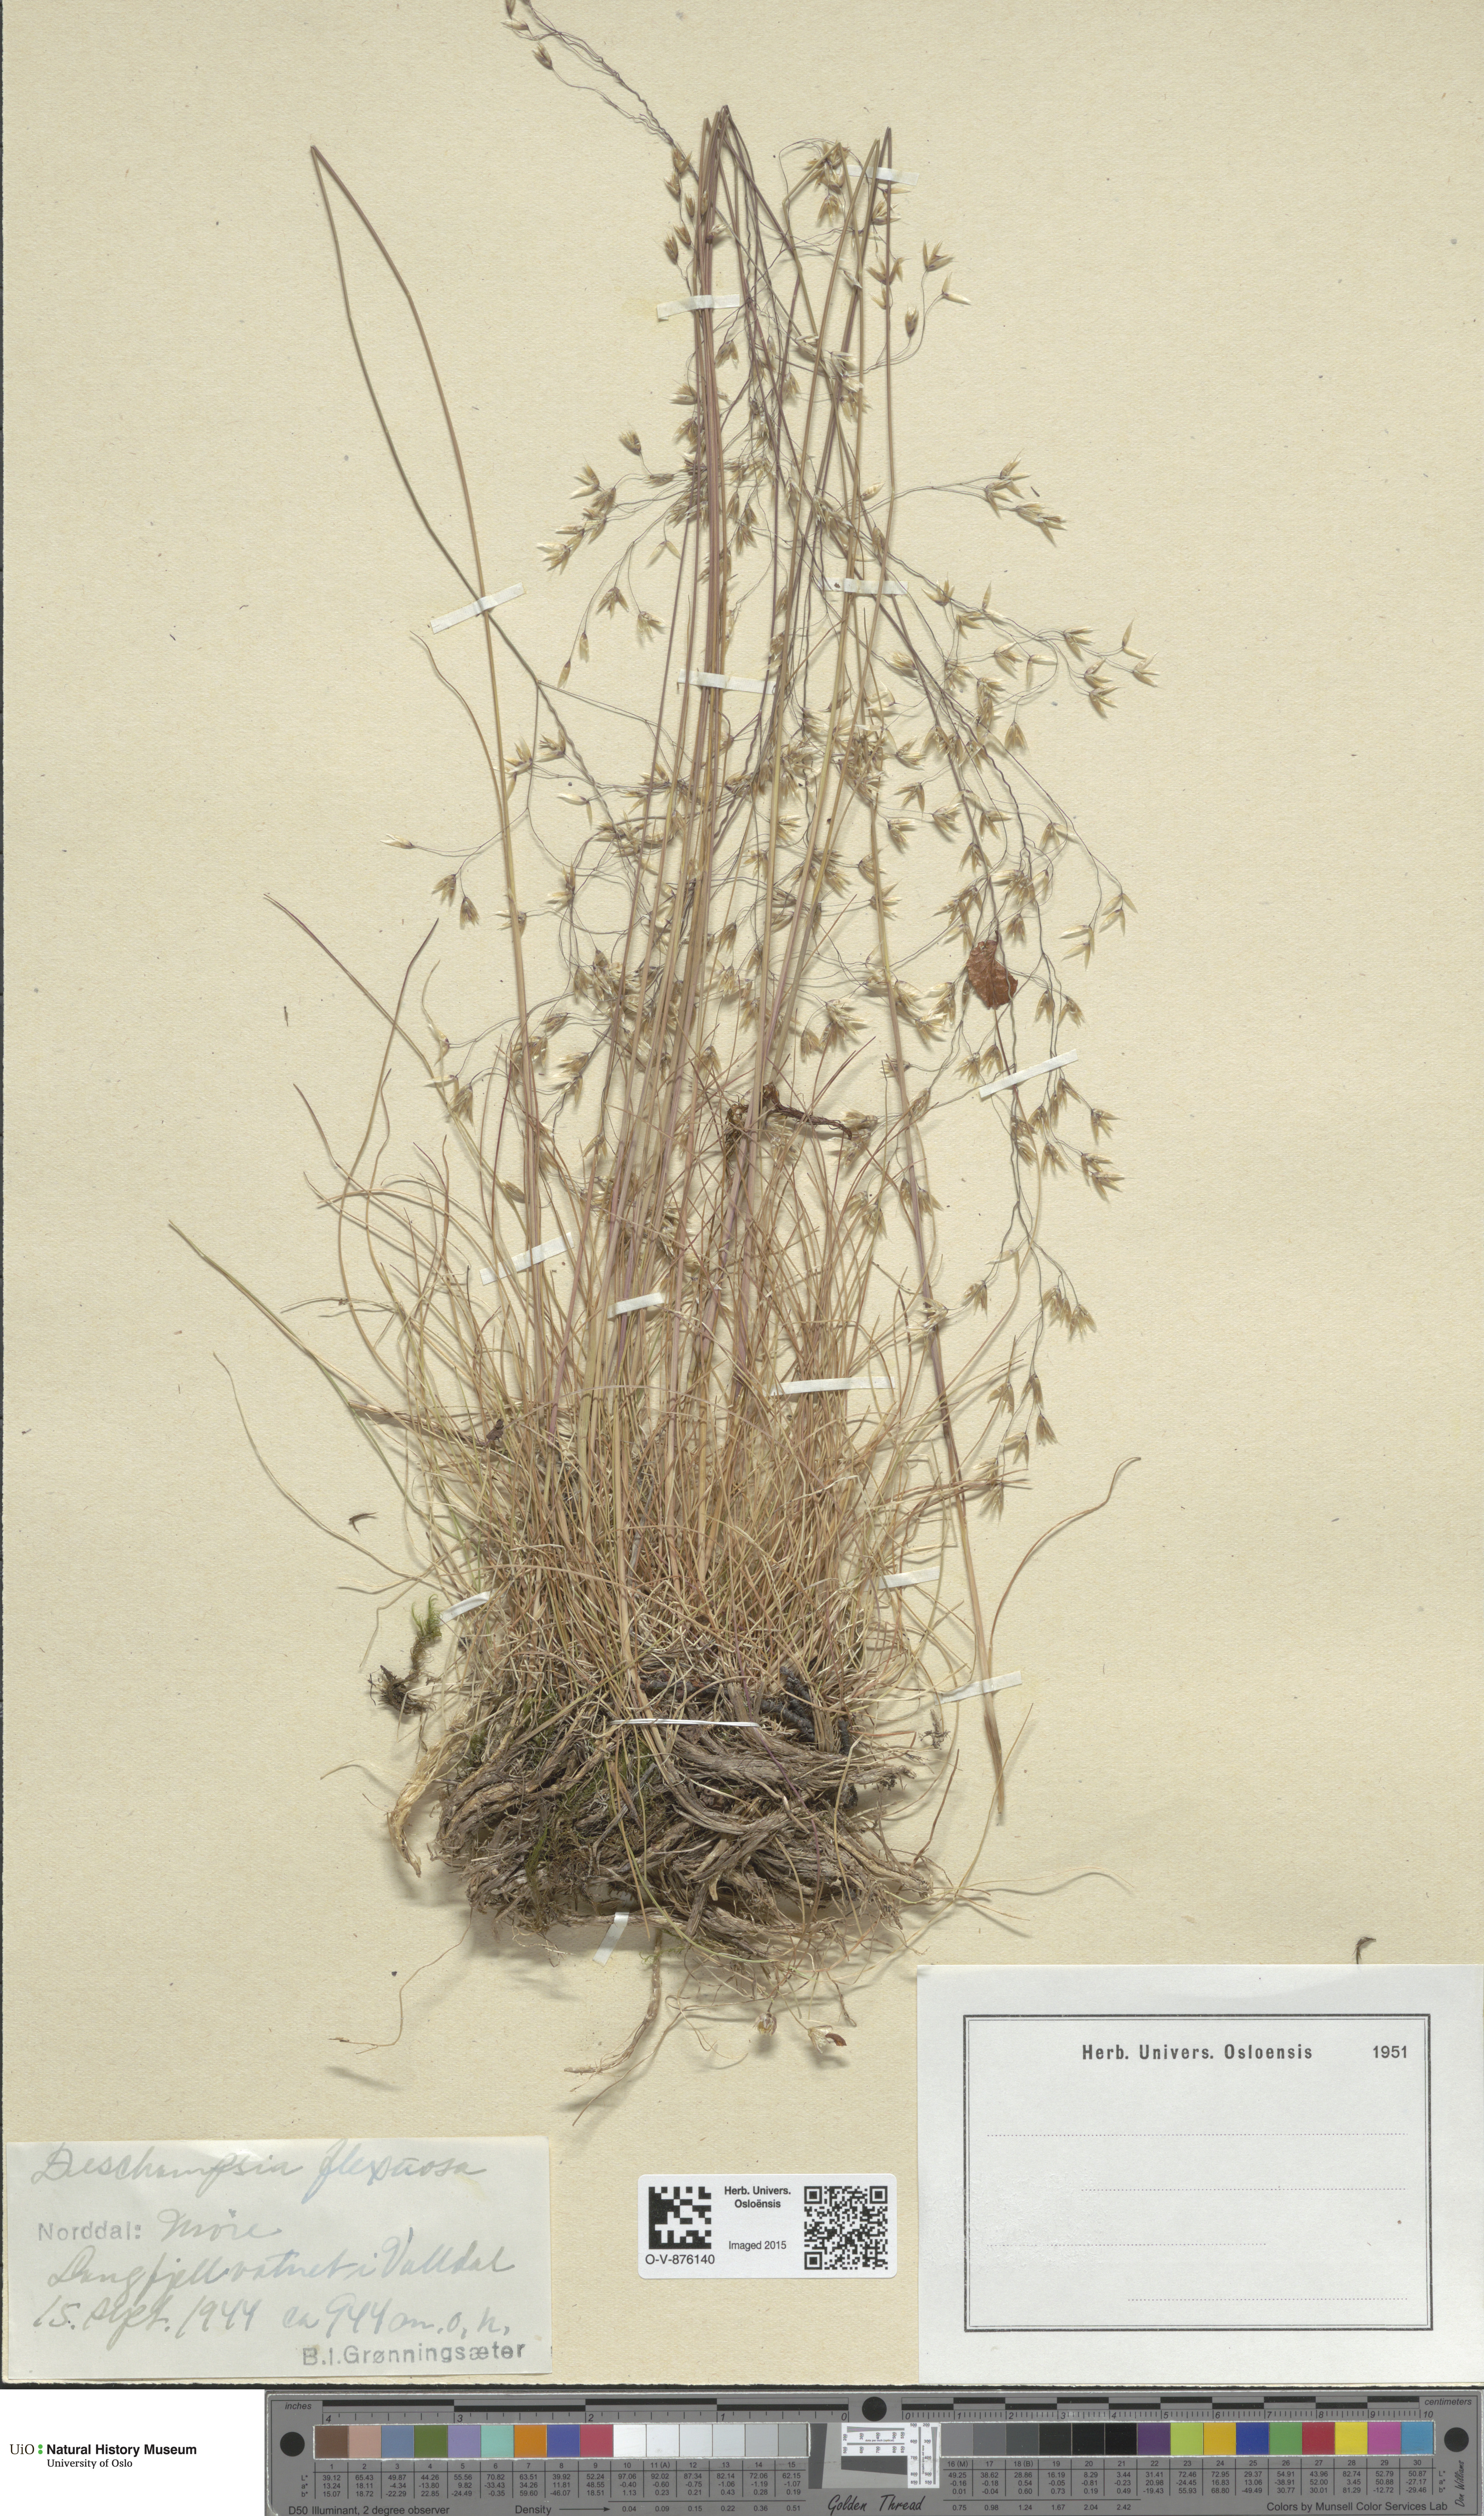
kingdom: Plantae
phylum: Tracheophyta
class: Liliopsida
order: Poales
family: Poaceae
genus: Avenella
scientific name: Avenella flexuosa
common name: Wavy hairgrass
